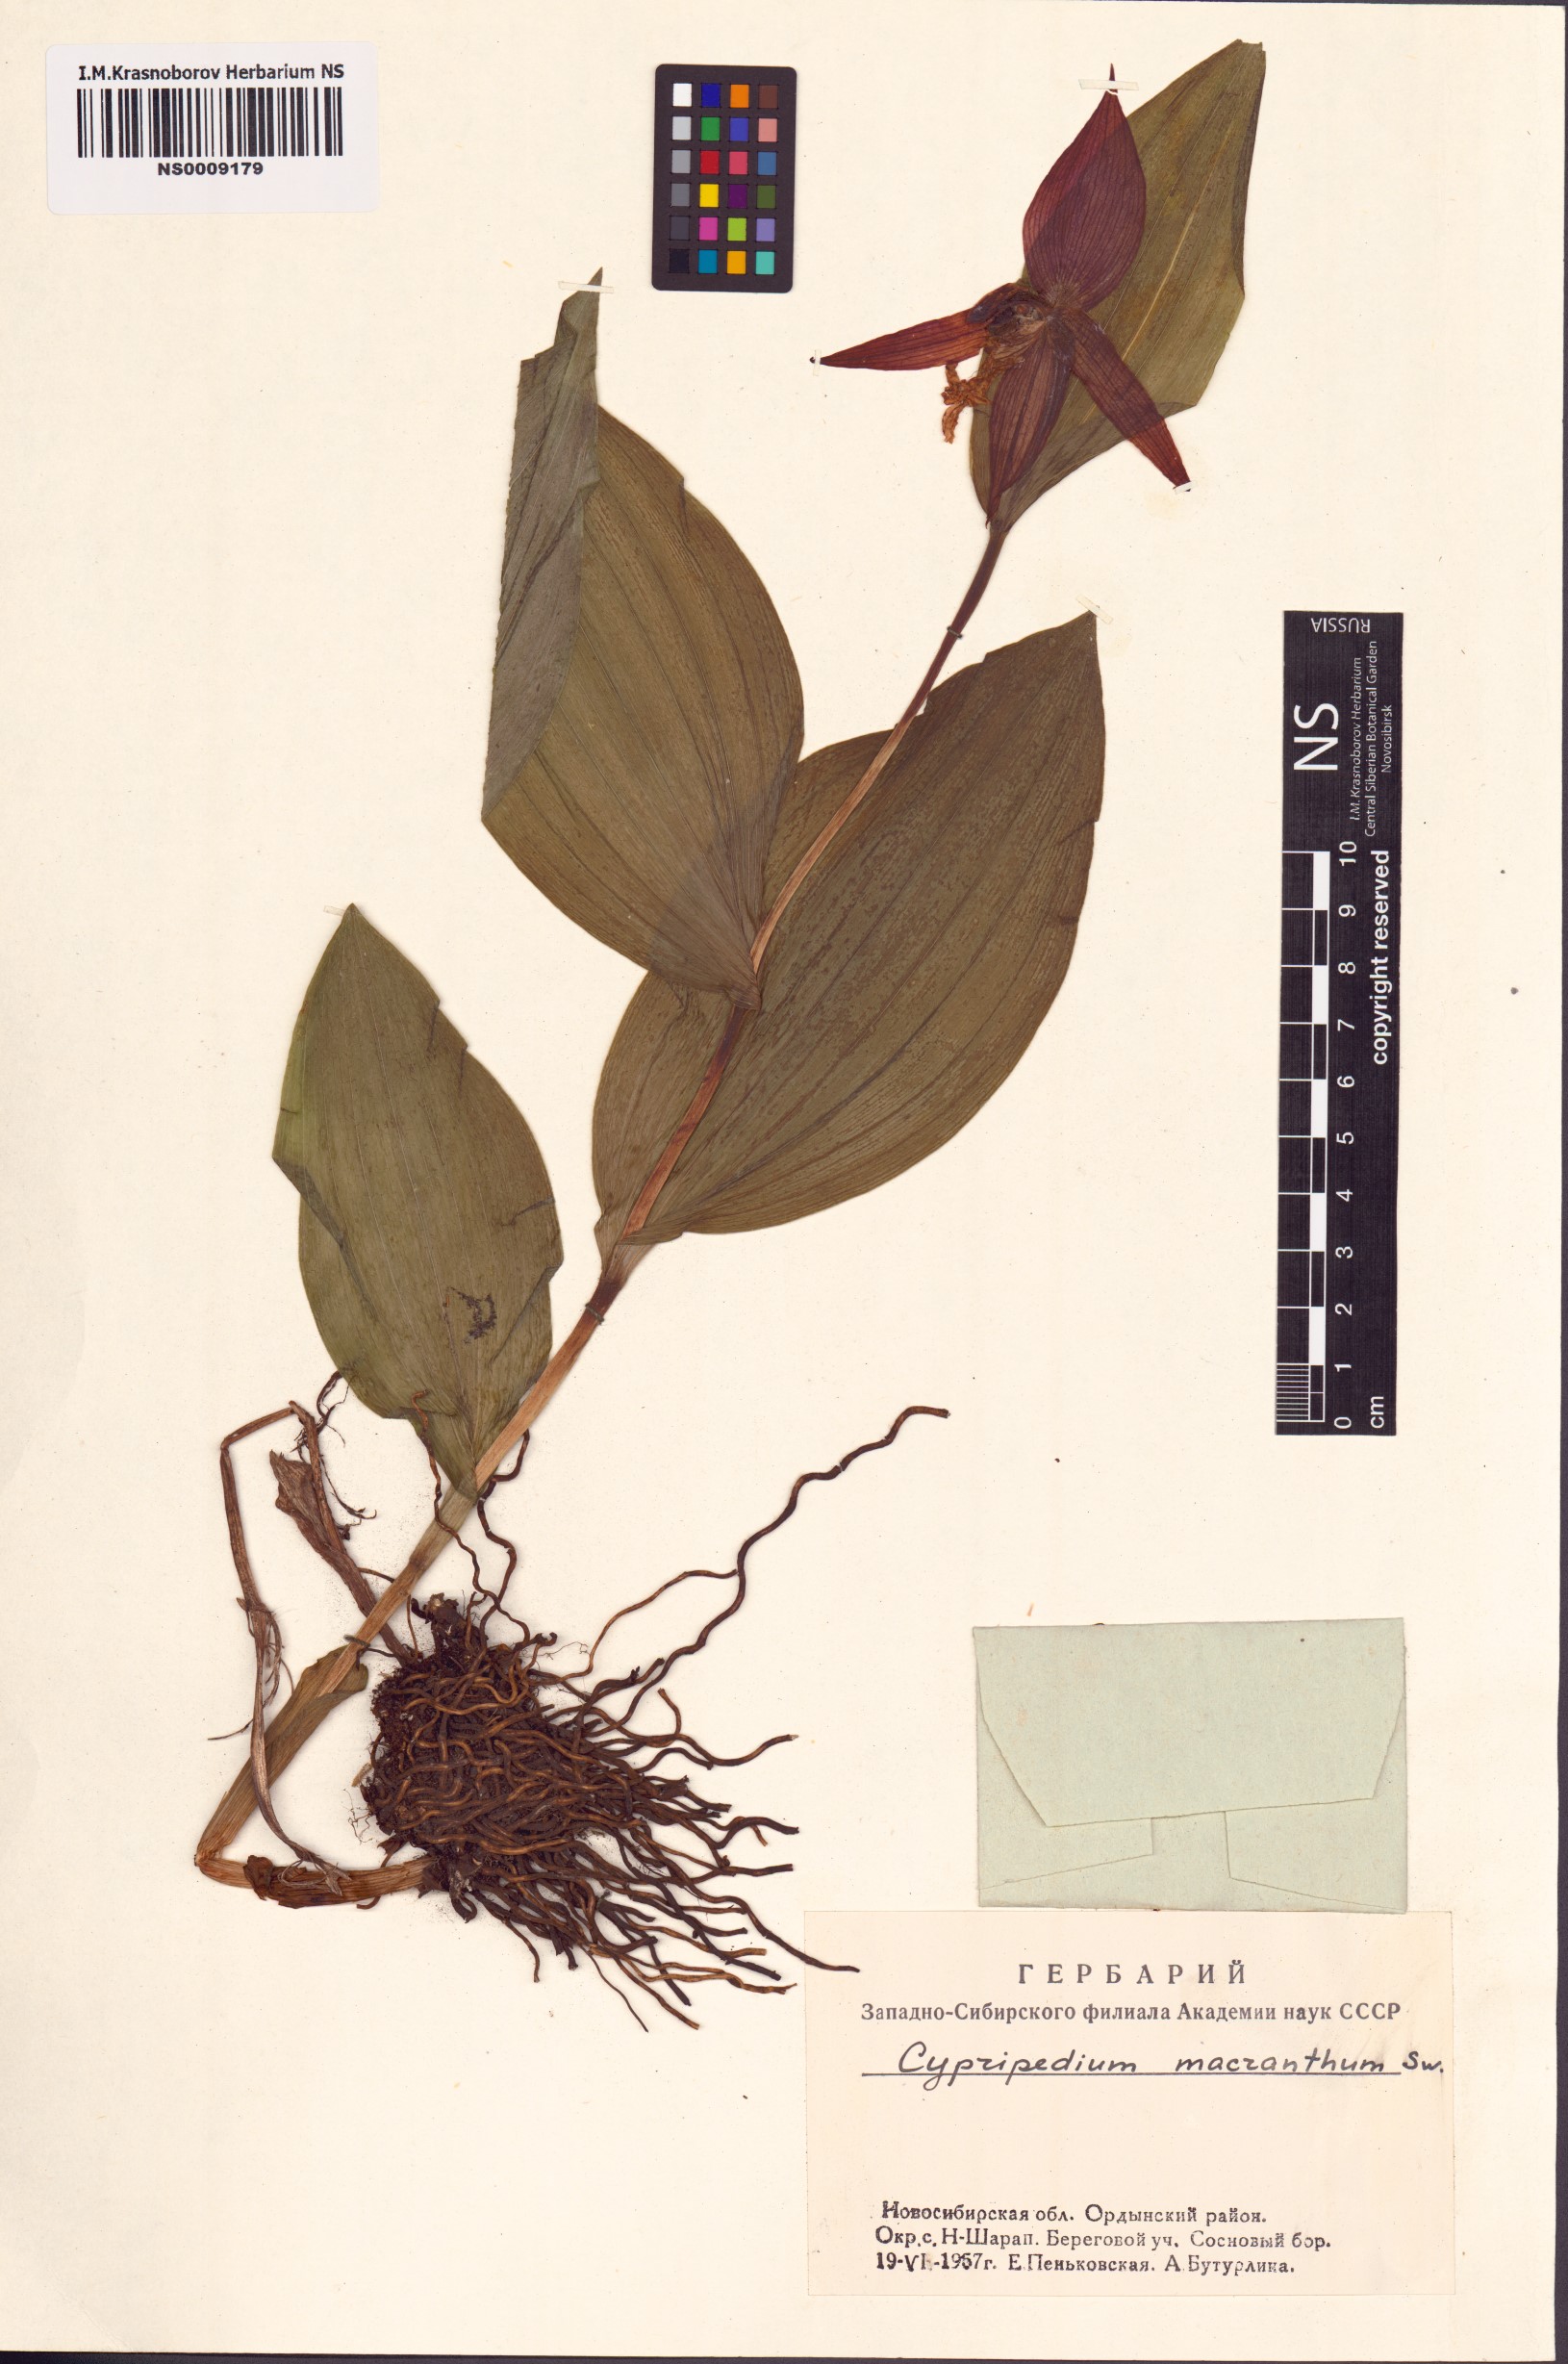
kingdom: Plantae
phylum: Tracheophyta
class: Liliopsida
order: Asparagales
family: Orchidaceae
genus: Cypripedium
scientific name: Cypripedium macranthos
